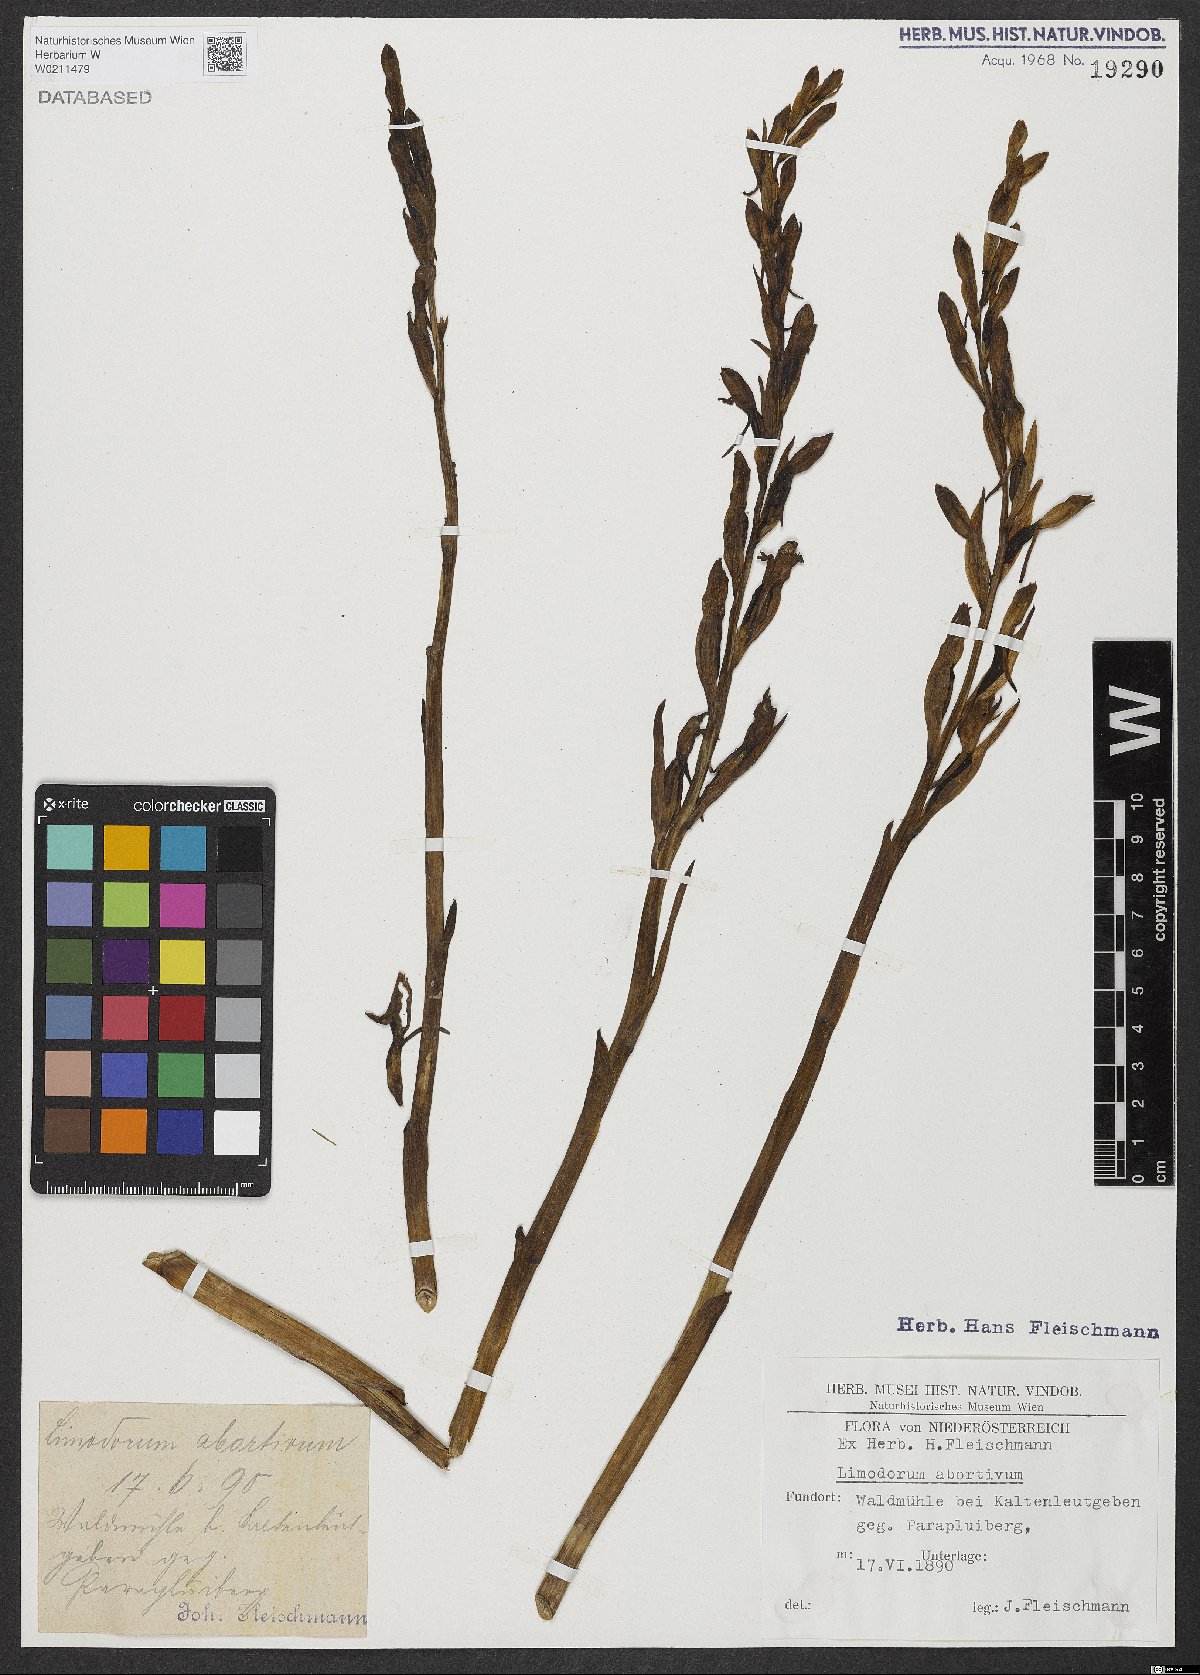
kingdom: Plantae
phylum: Tracheophyta
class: Liliopsida
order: Asparagales
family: Orchidaceae
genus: Limodorum
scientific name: Limodorum abortivum
